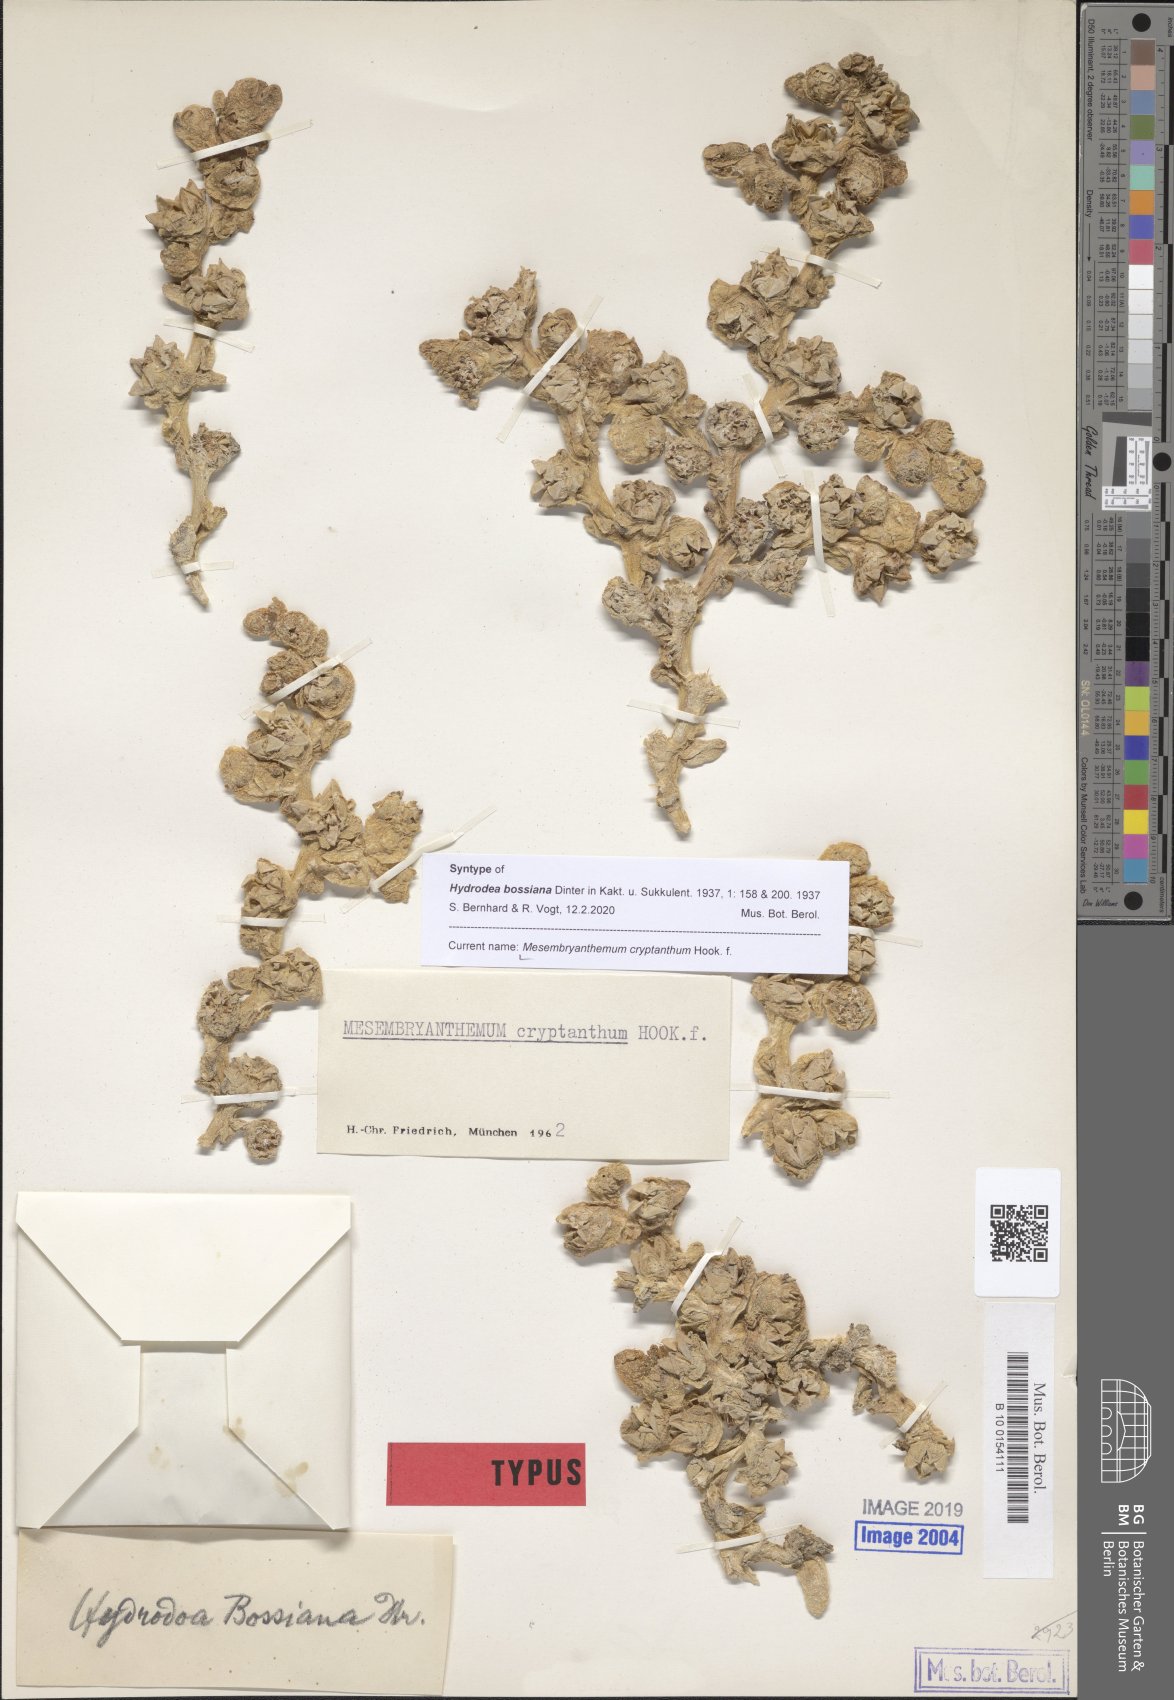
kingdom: Plantae
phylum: Tracheophyta
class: Magnoliopsida
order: Caryophyllales
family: Aizoaceae
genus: Mesembryanthemum
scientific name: Mesembryanthemum cryptanthum
